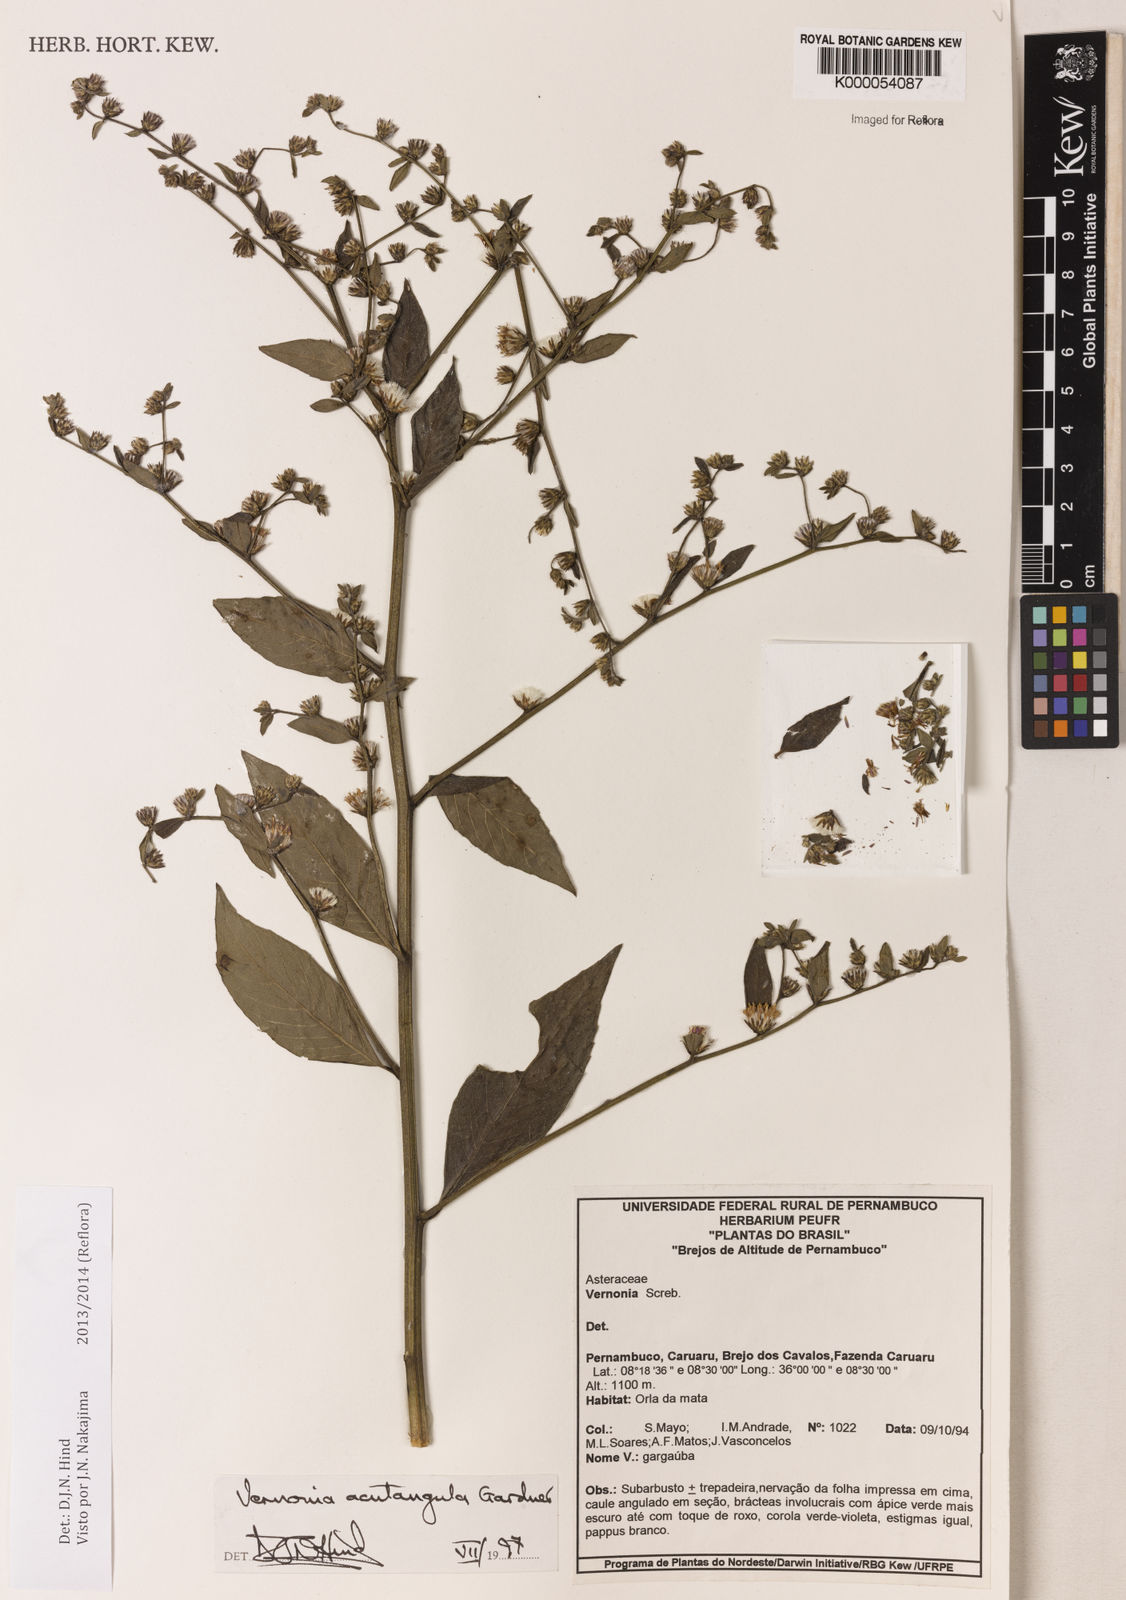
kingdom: Plantae
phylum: Tracheophyta
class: Magnoliopsida
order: Asterales
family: Asteraceae
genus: Lepidaploa
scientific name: Lepidaploa acutangula
